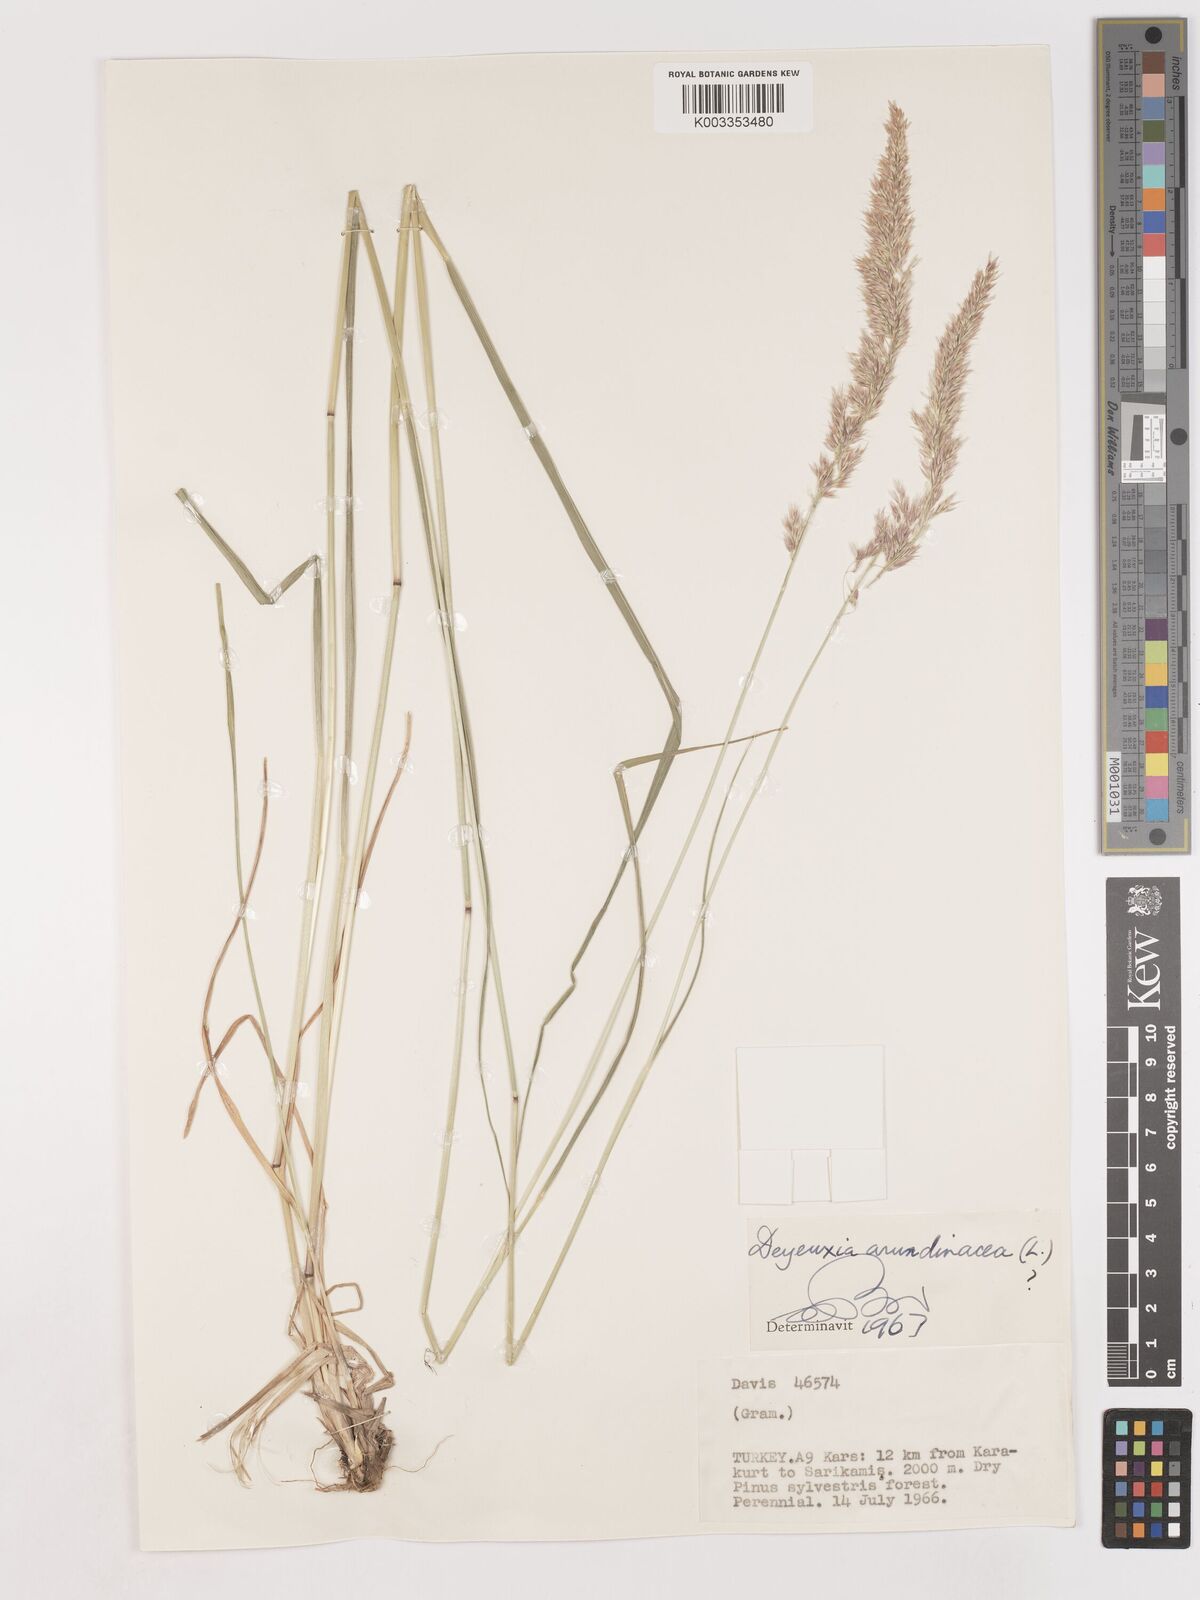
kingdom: Plantae
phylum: Tracheophyta
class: Liliopsida
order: Poales
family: Poaceae
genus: Calamagrostis
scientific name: Calamagrostis
